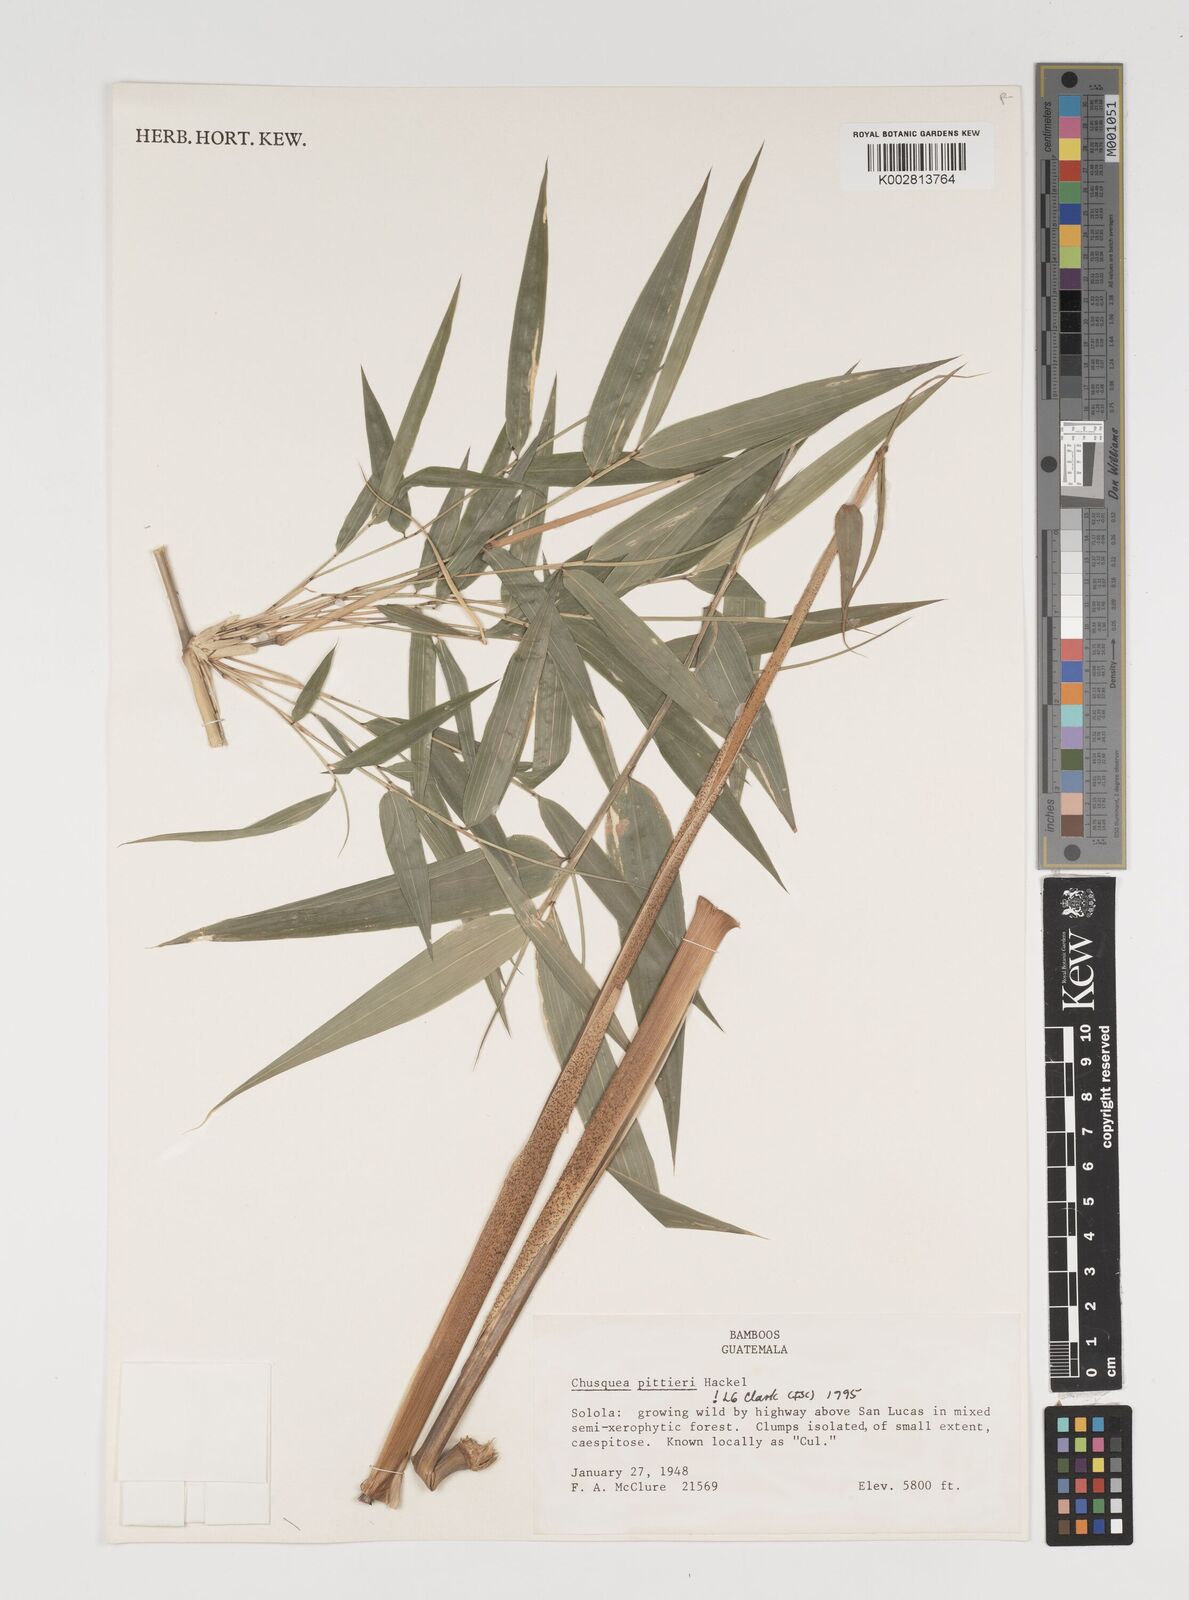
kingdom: Plantae
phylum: Tracheophyta
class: Liliopsida
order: Poales
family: Poaceae
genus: Chusquea
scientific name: Chusquea pittieri
